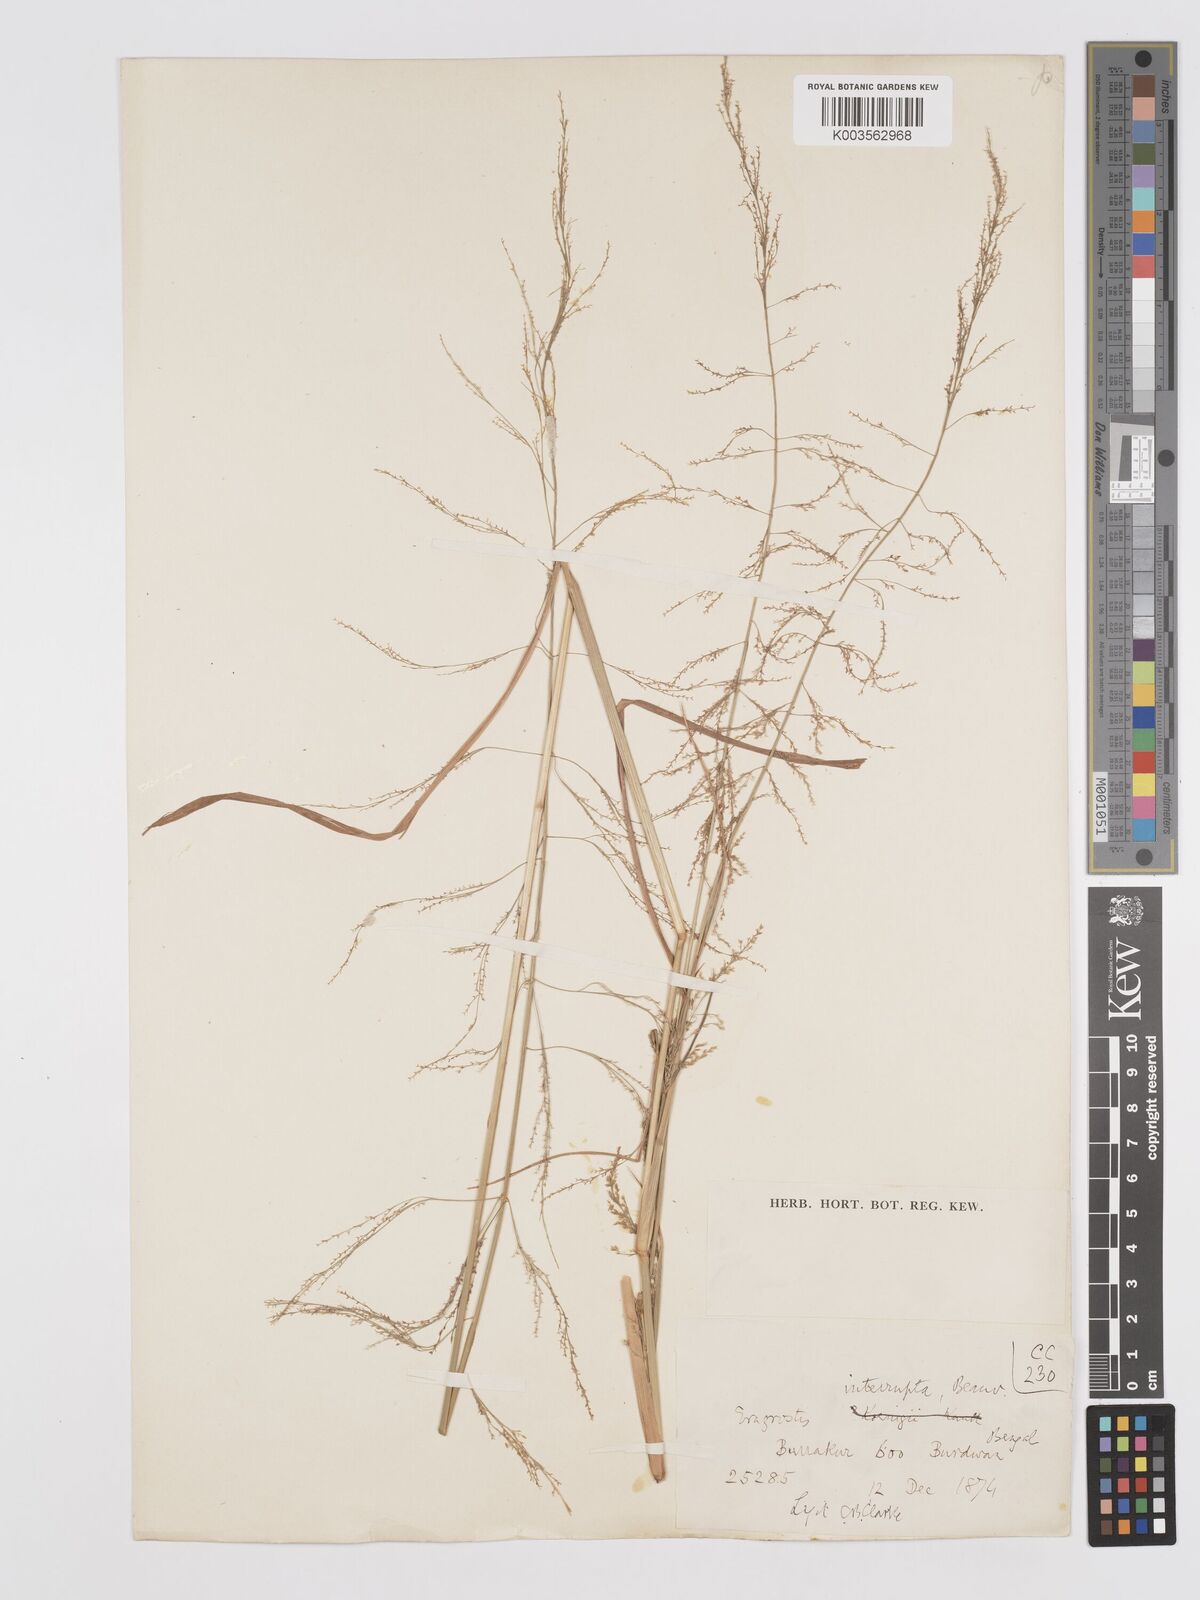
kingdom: Plantae
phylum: Tracheophyta
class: Liliopsida
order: Poales
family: Poaceae
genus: Eragrostis
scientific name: Eragrostis japonica
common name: Pond lovegrass
